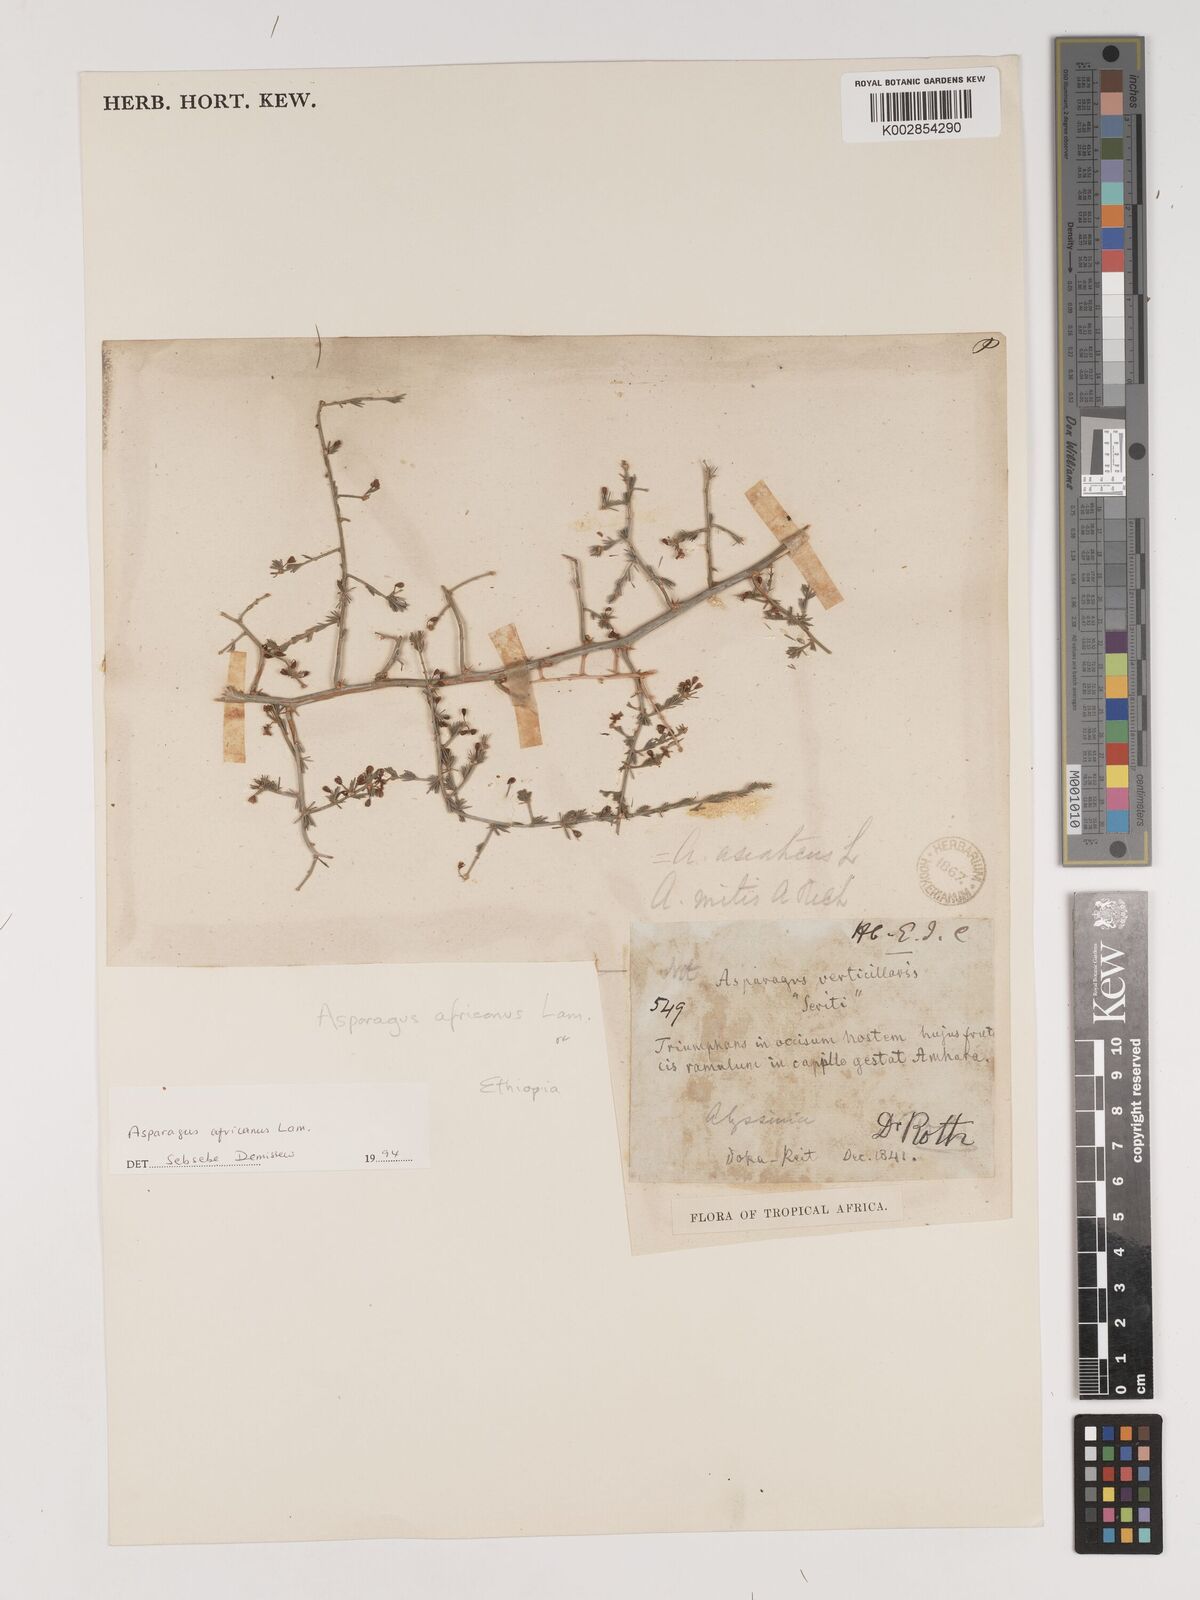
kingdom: Plantae
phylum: Tracheophyta
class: Liliopsida
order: Asparagales
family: Asparagaceae
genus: Asparagus
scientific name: Asparagus africanus
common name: Asparagus-fern
